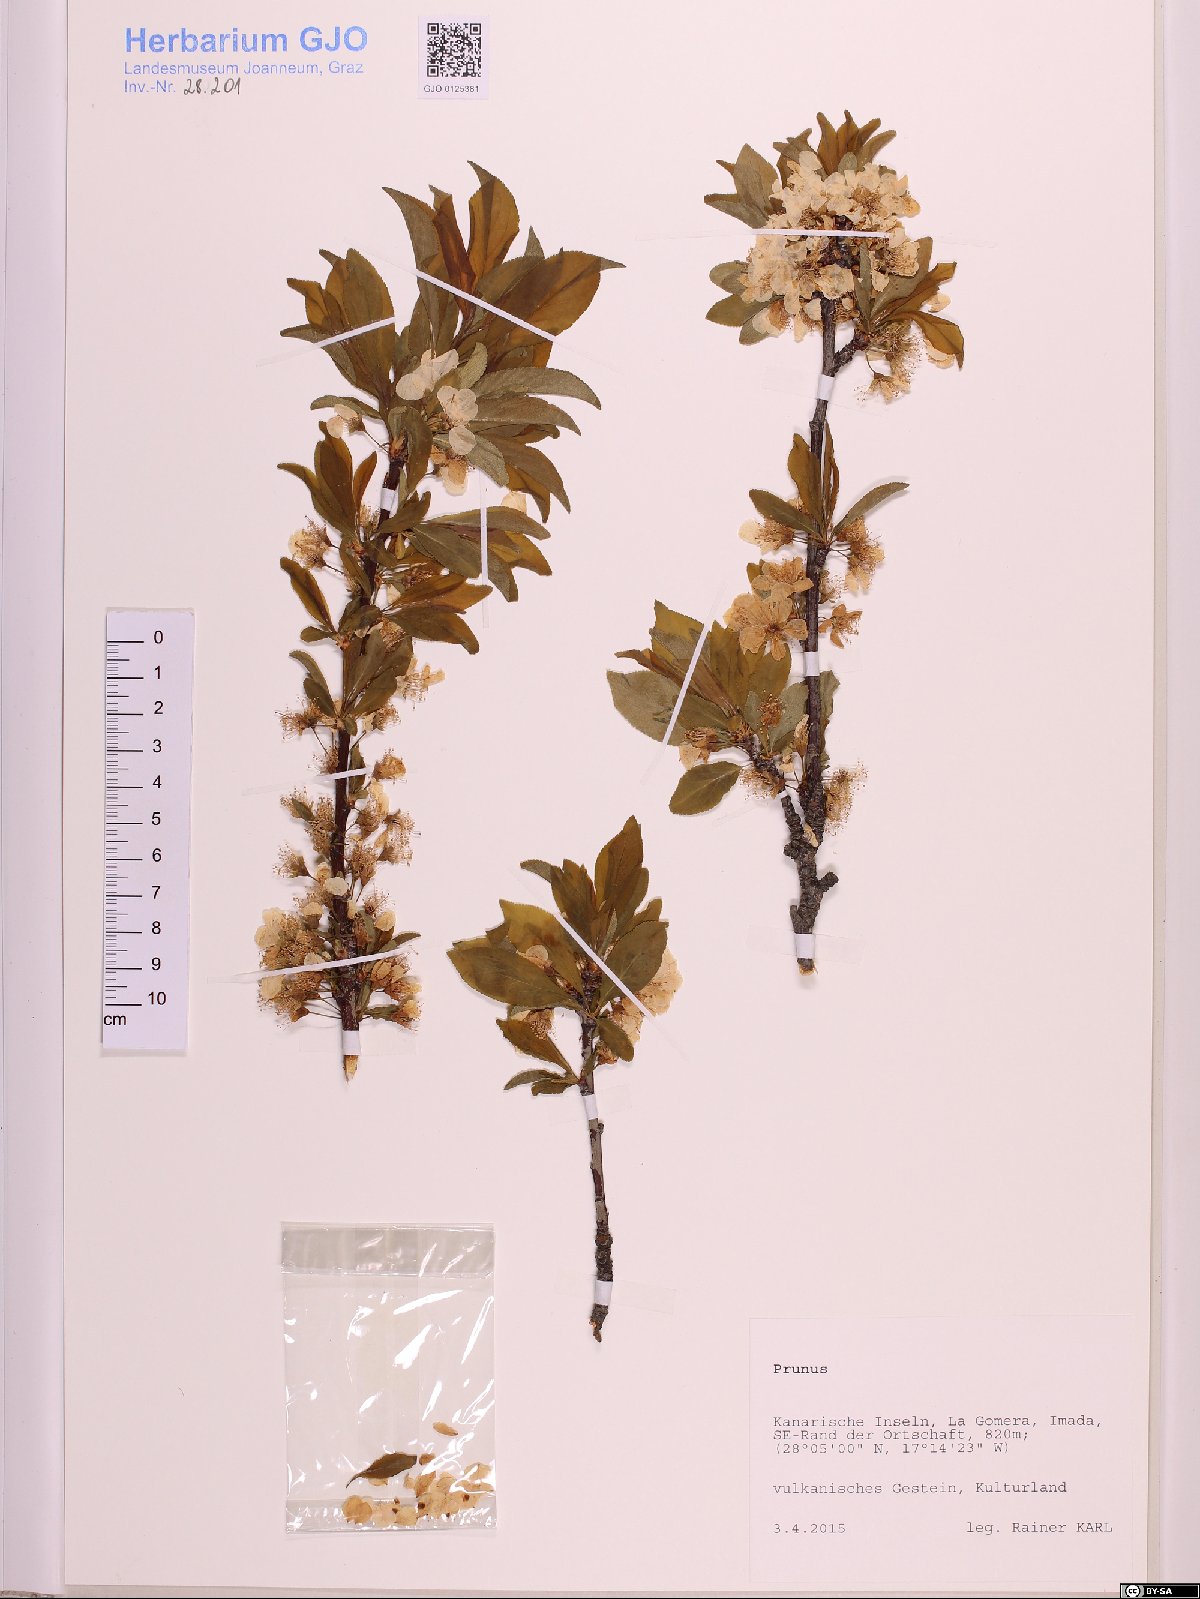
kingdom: Plantae
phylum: Tracheophyta
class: Magnoliopsida
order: Rosales
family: Rosaceae
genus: Prunus
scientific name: Prunus
